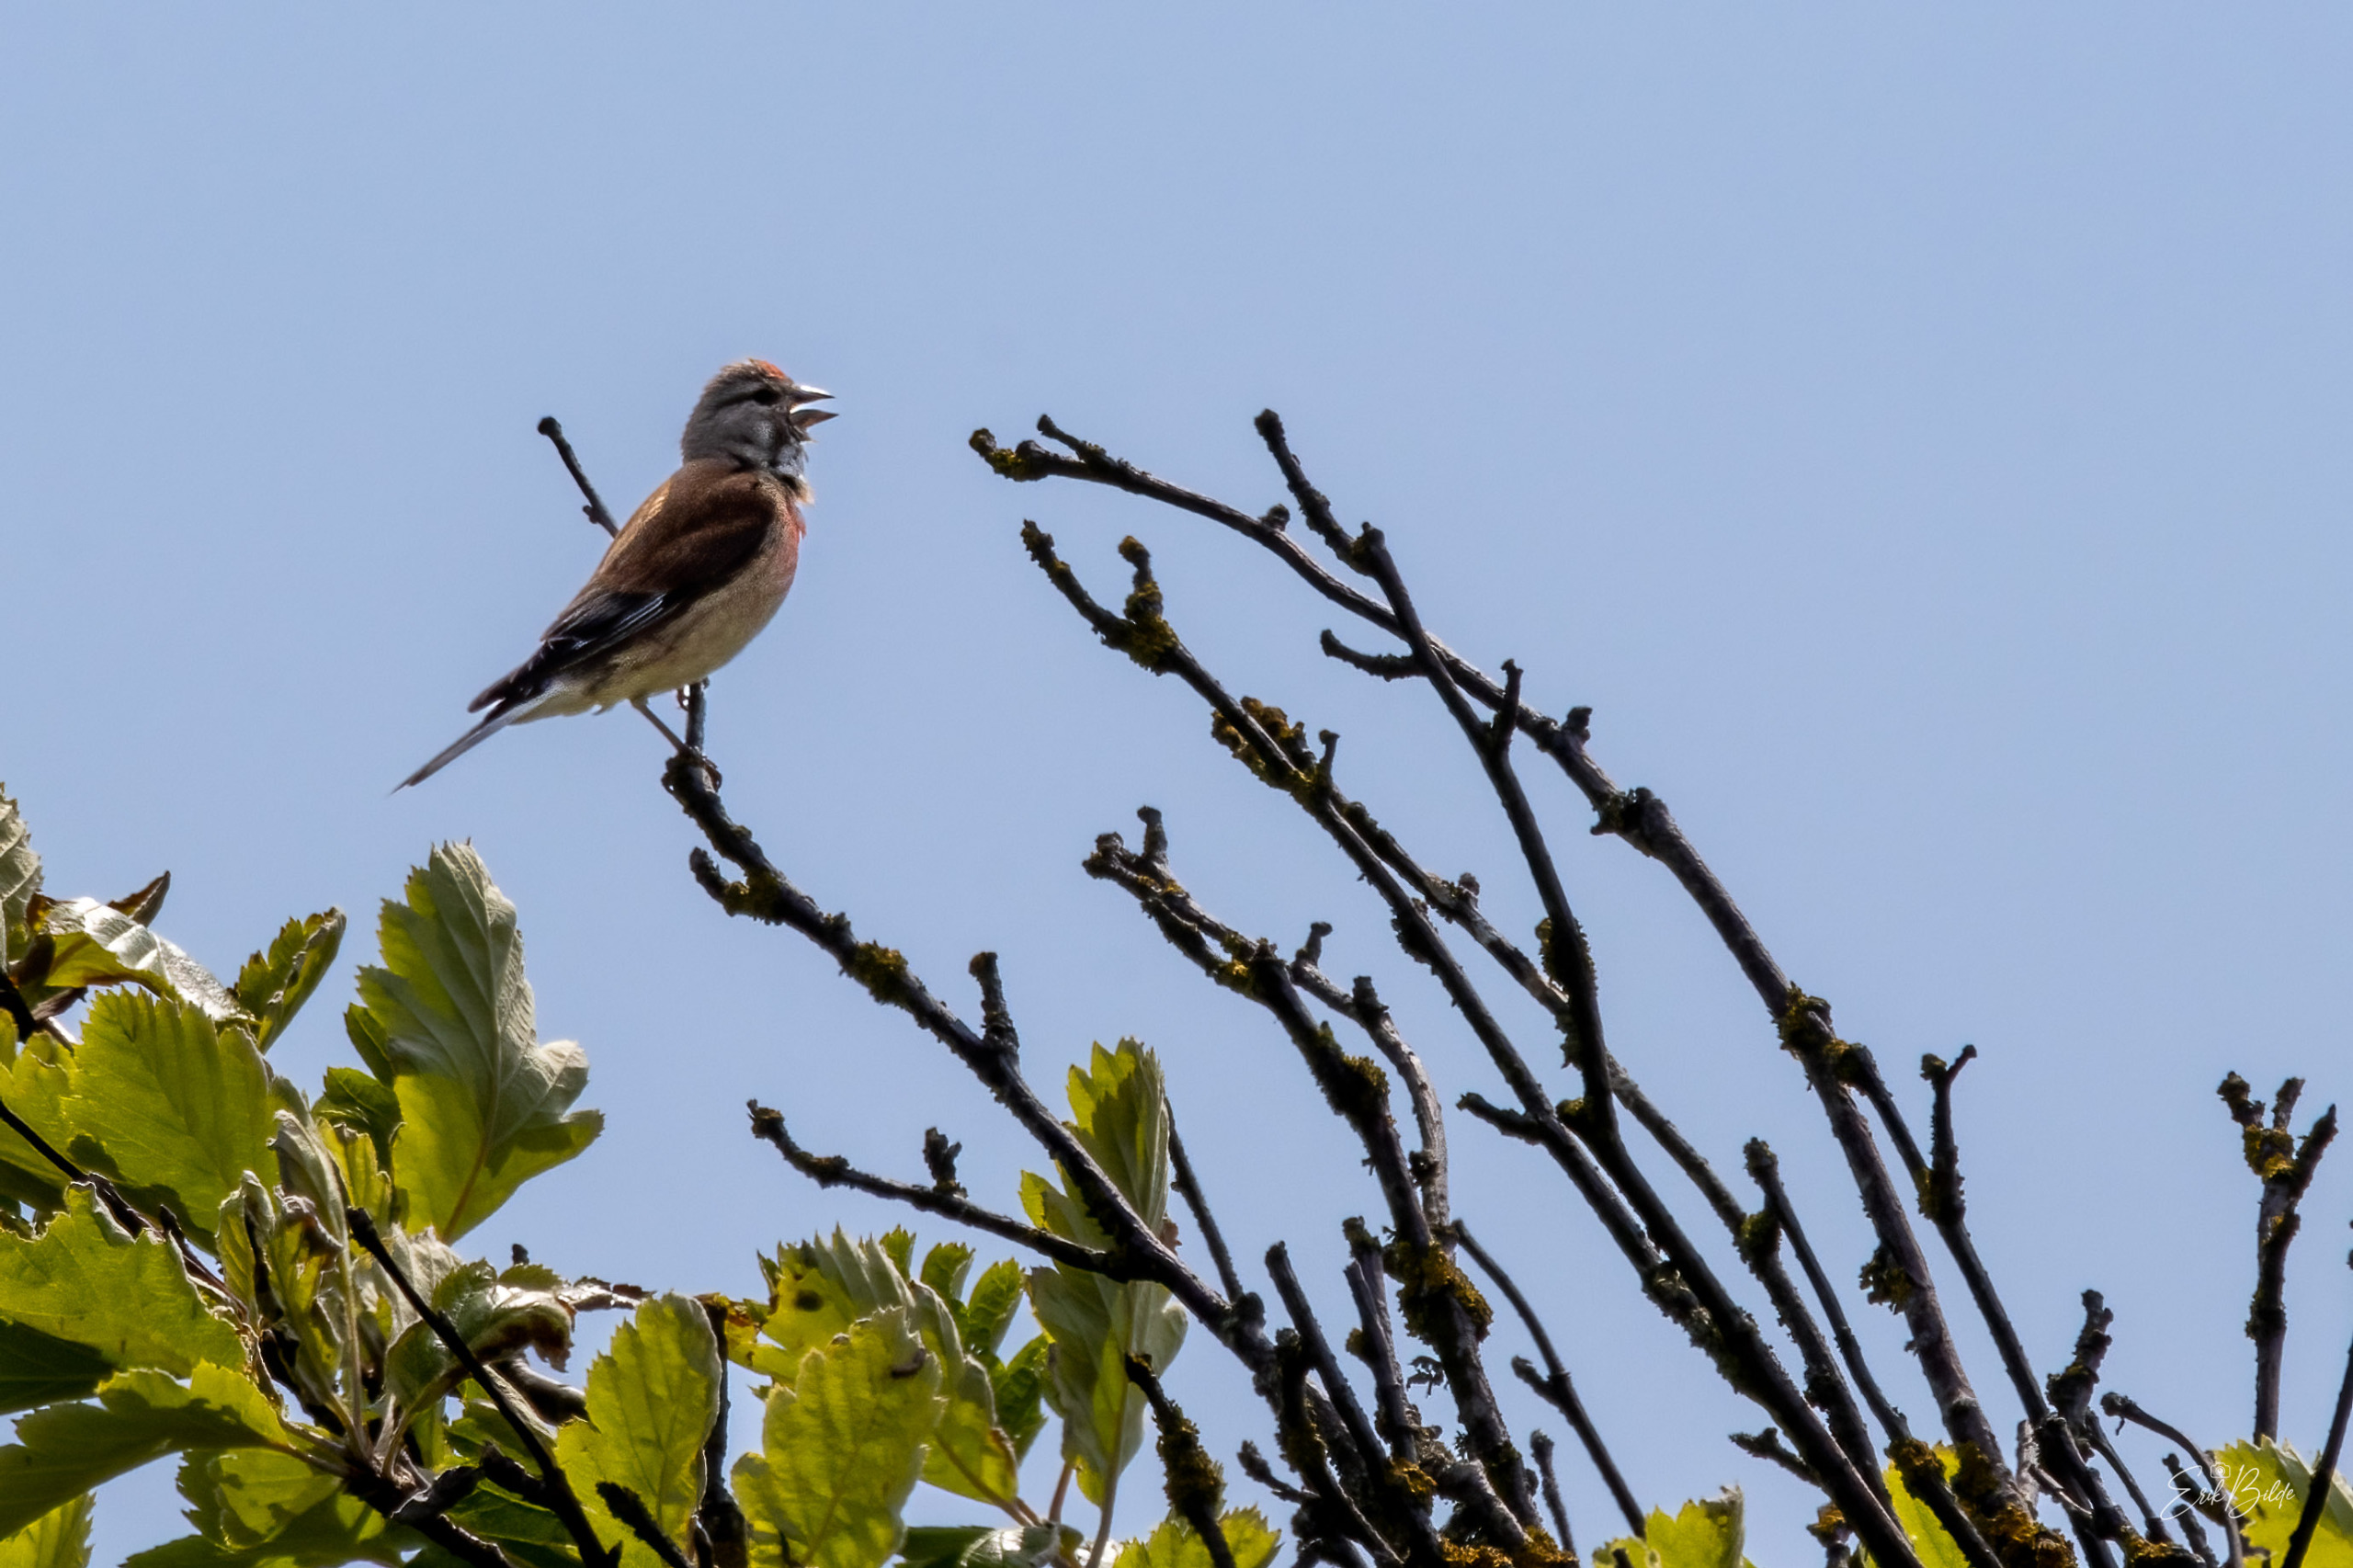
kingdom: Animalia
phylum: Chordata
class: Aves
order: Passeriformes
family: Fringillidae
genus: Linaria
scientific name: Linaria cannabina
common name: Tornirisk
